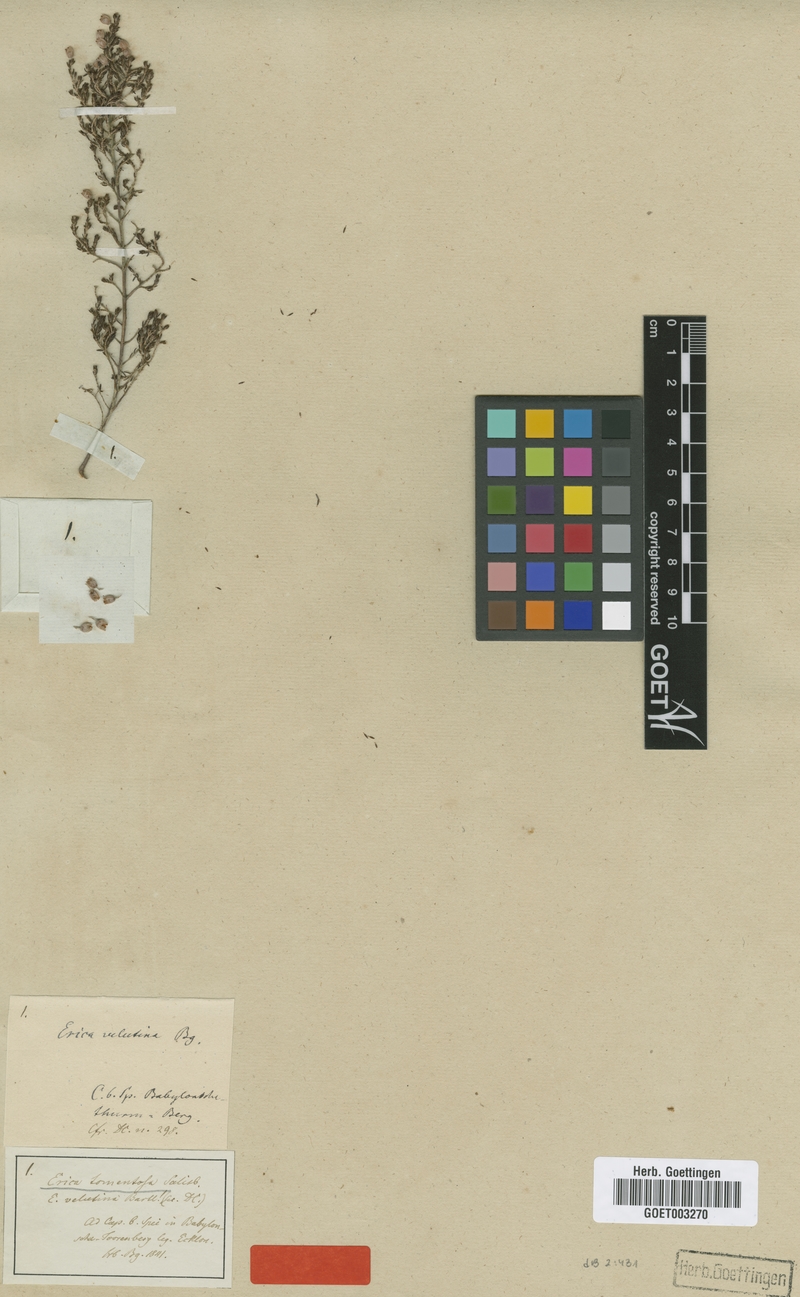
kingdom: Plantae
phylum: Tracheophyta
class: Magnoliopsida
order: Ericales
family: Ericaceae
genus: Erica
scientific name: Erica tomentosa
